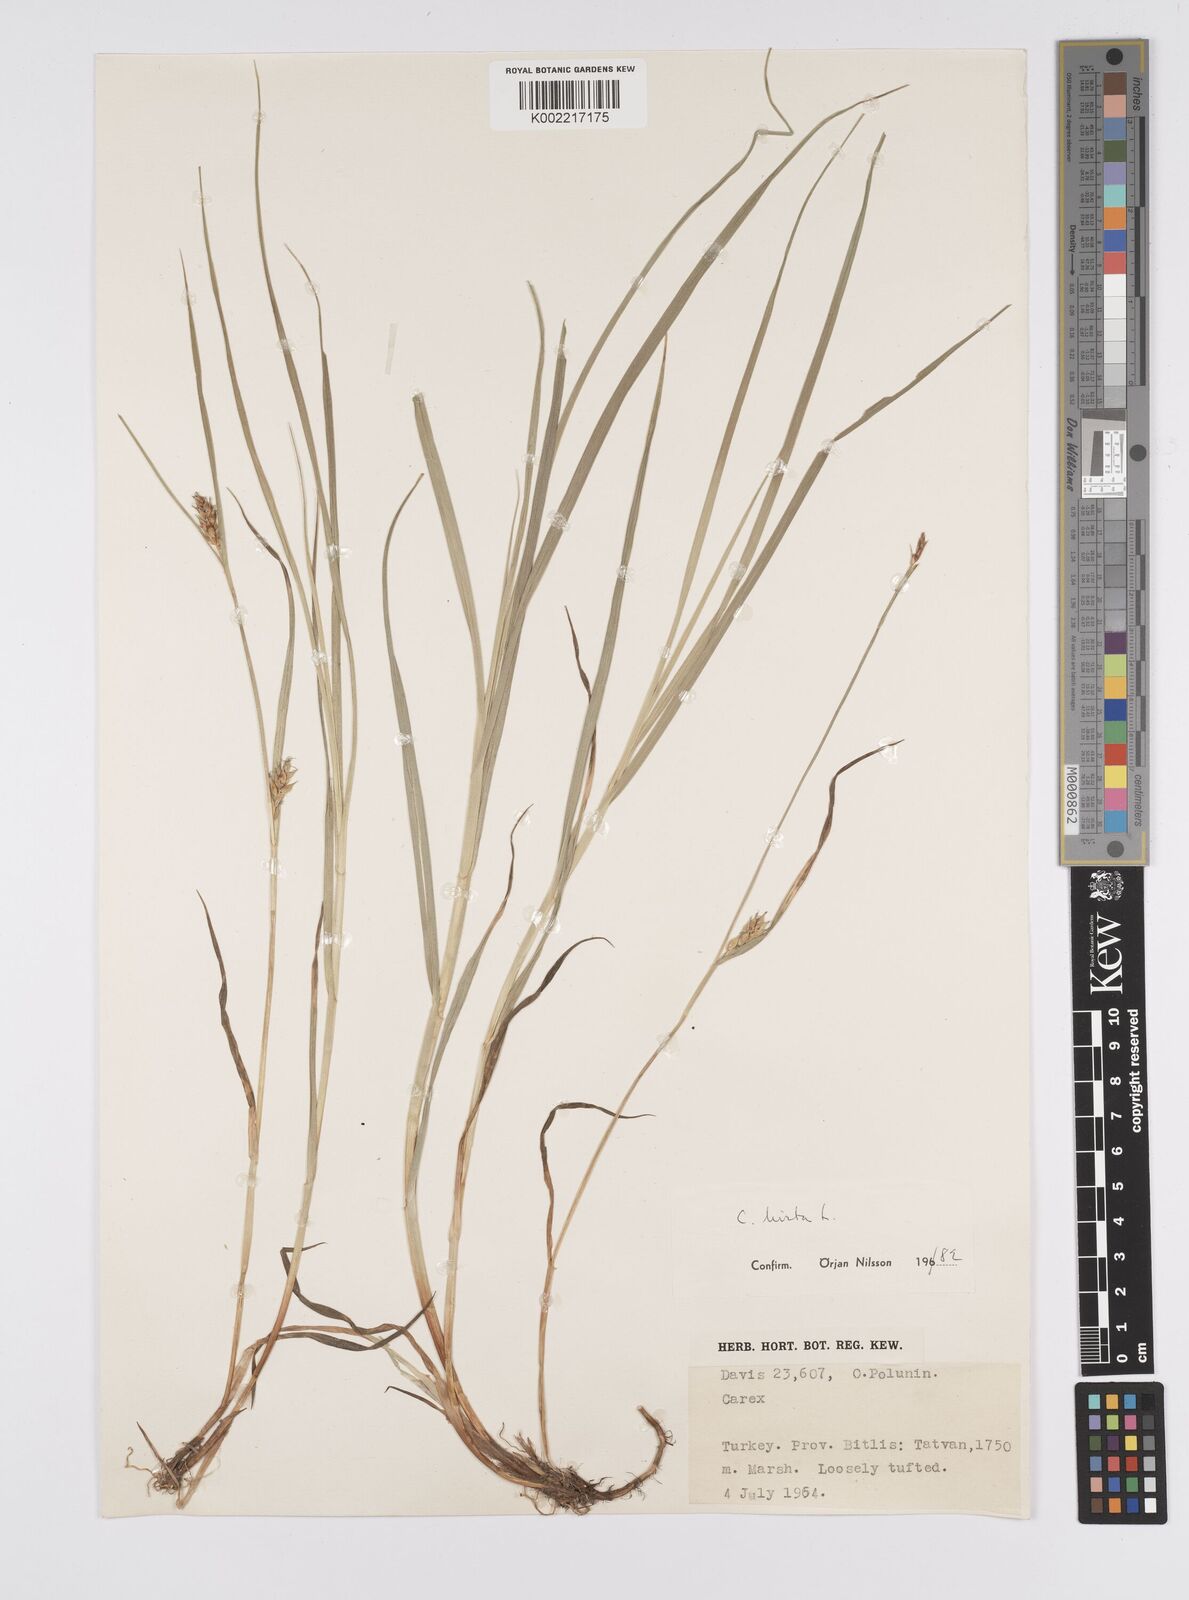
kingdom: Plantae
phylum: Tracheophyta
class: Liliopsida
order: Poales
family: Cyperaceae
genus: Carex
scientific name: Carex hirta
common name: Hairy sedge
